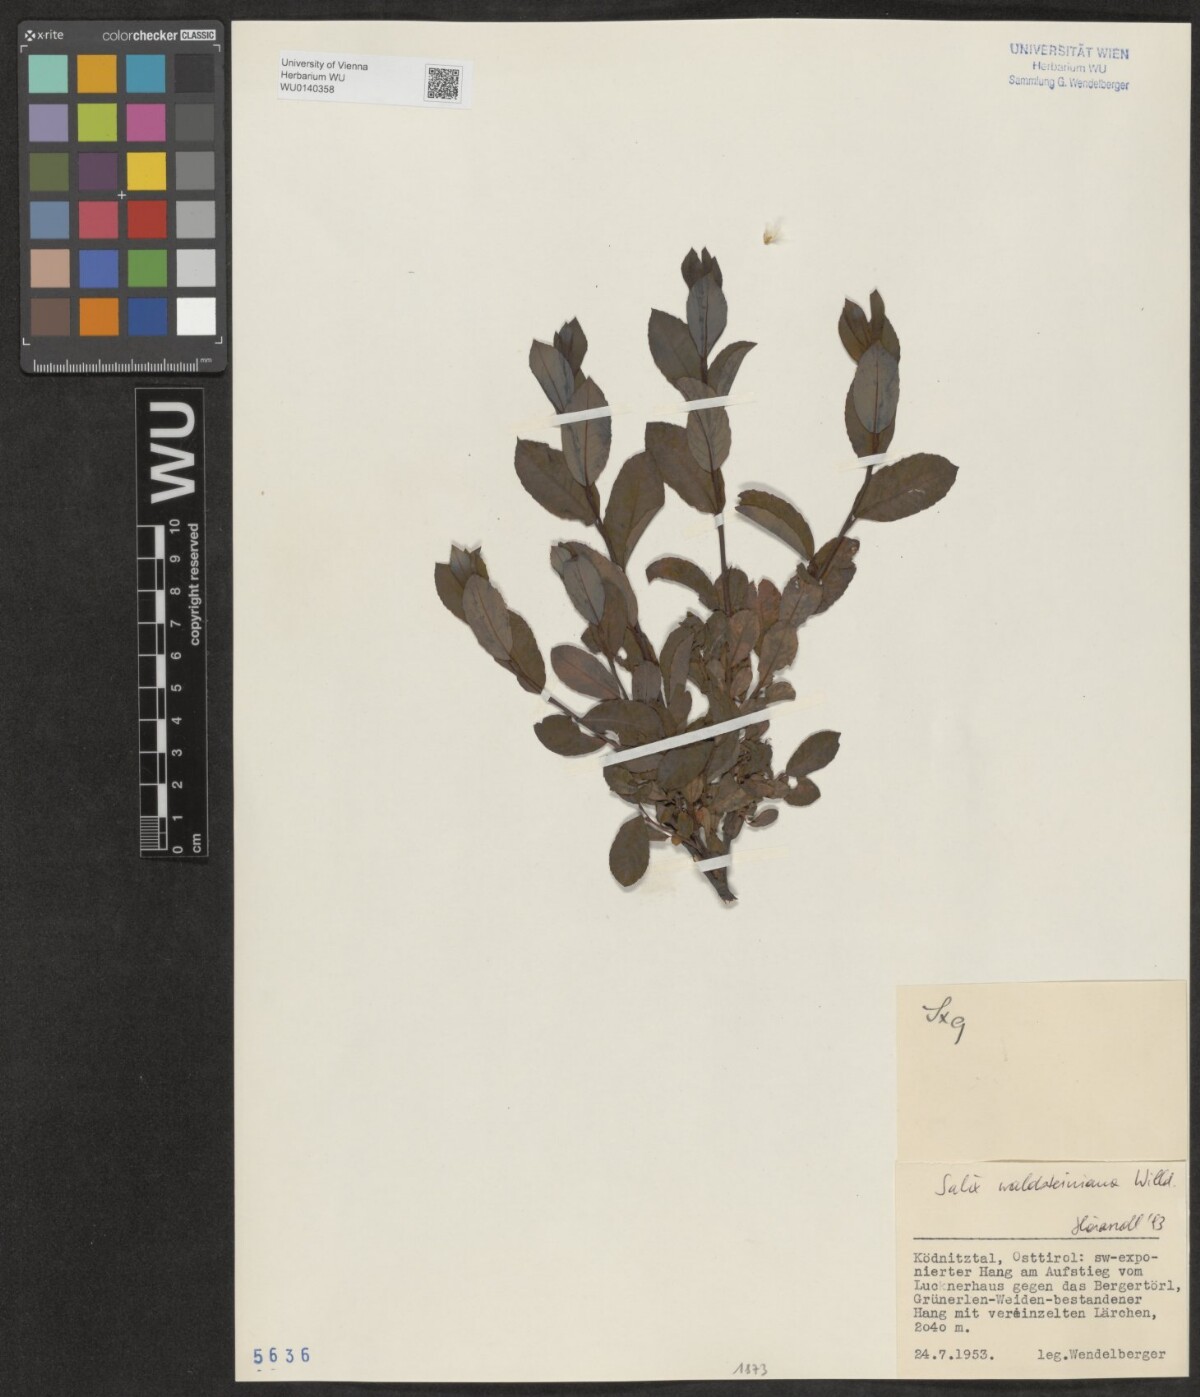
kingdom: Plantae
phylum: Tracheophyta
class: Magnoliopsida
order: Malpighiales
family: Salicaceae
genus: Salix
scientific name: Salix waldsteiniana
